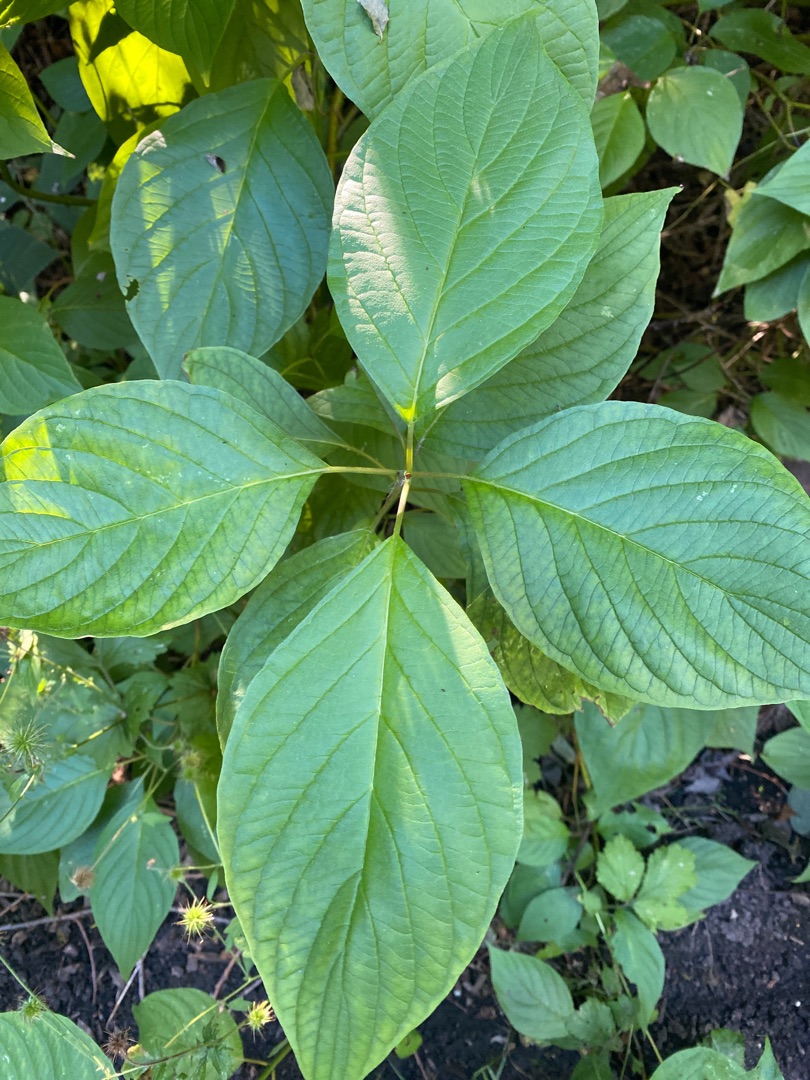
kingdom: Plantae
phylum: Tracheophyta
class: Magnoliopsida
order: Cornales
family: Cornaceae
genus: Cornus
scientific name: Cornus
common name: Kornelslægten
